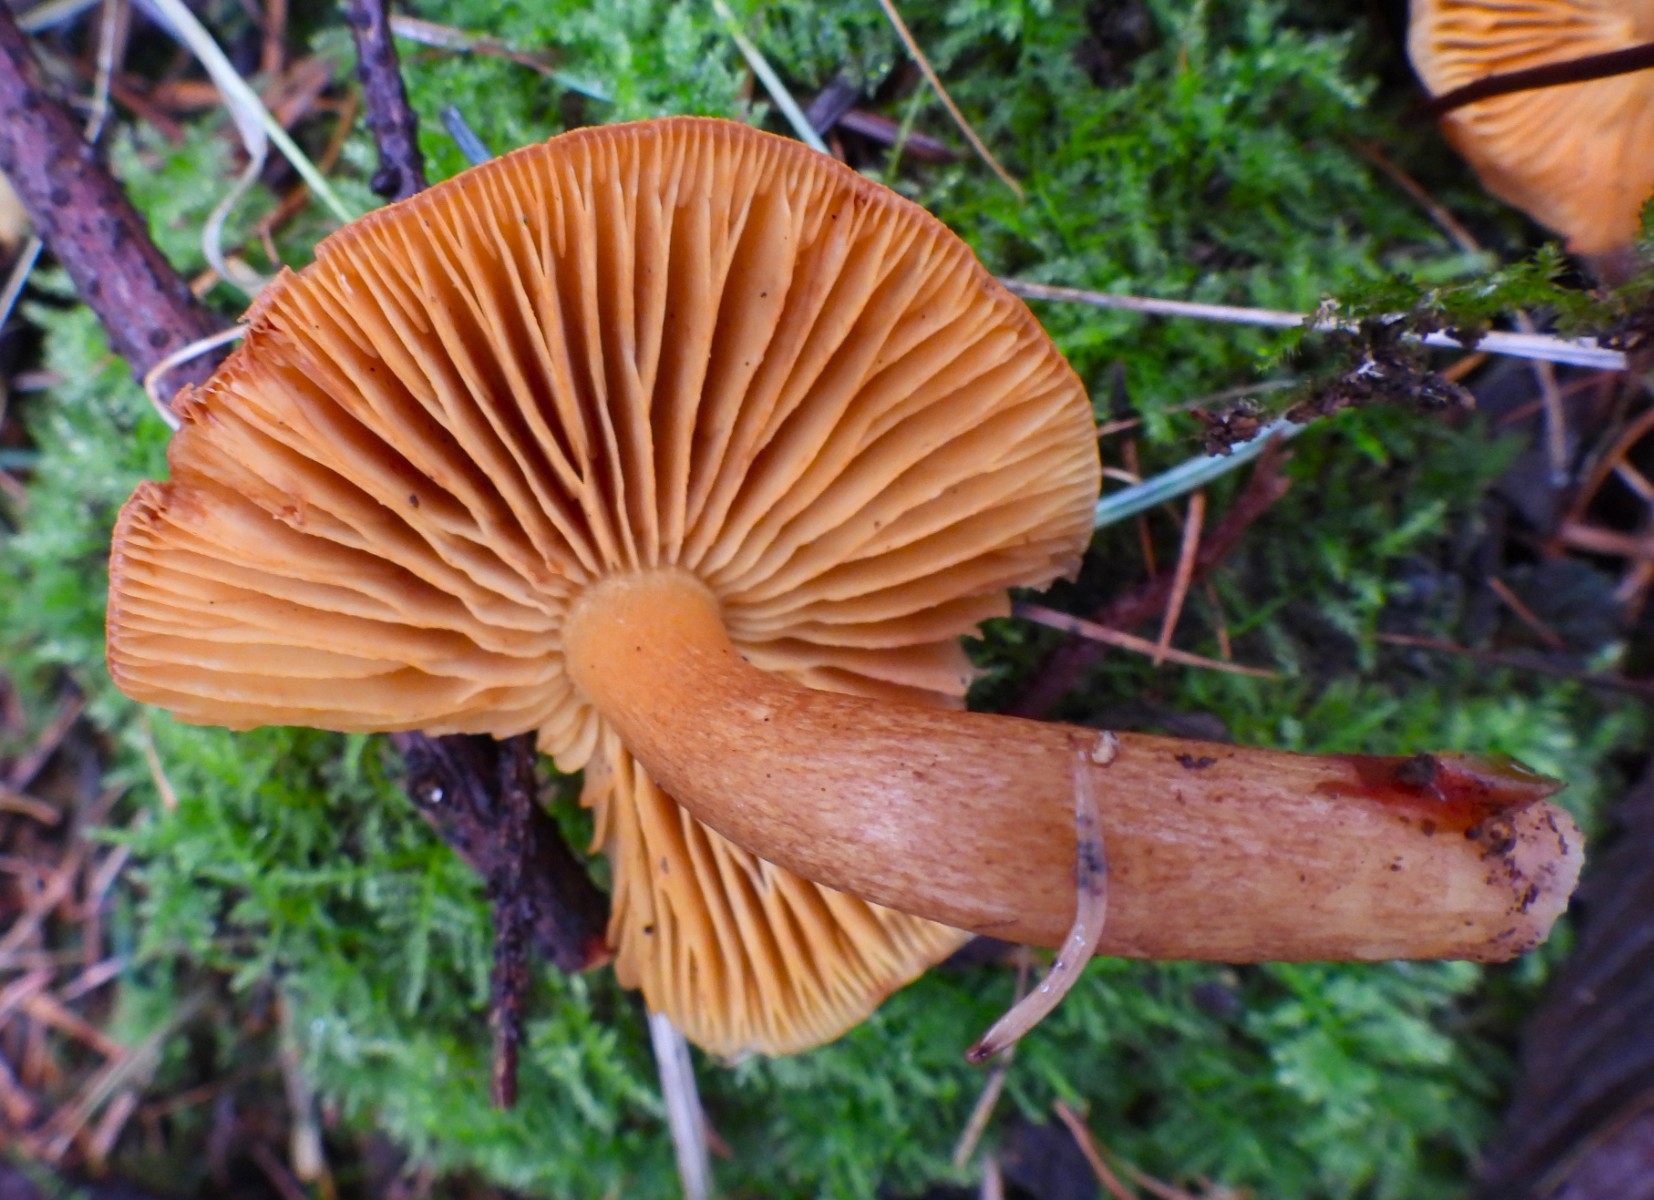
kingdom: Fungi
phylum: Basidiomycota
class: Agaricomycetes
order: Agaricales
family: Tricholomataceae
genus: Tricholomopsis
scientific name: Tricholomopsis rutilans
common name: purpur-væbnerhat
